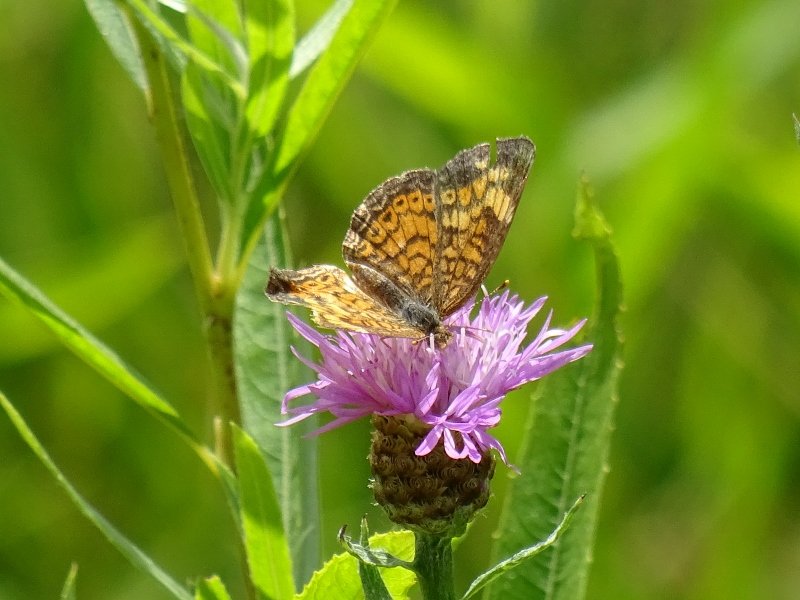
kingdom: Animalia
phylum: Arthropoda
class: Insecta
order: Lepidoptera
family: Nymphalidae
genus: Phyciodes
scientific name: Phyciodes tharos
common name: Pearl Crescent
